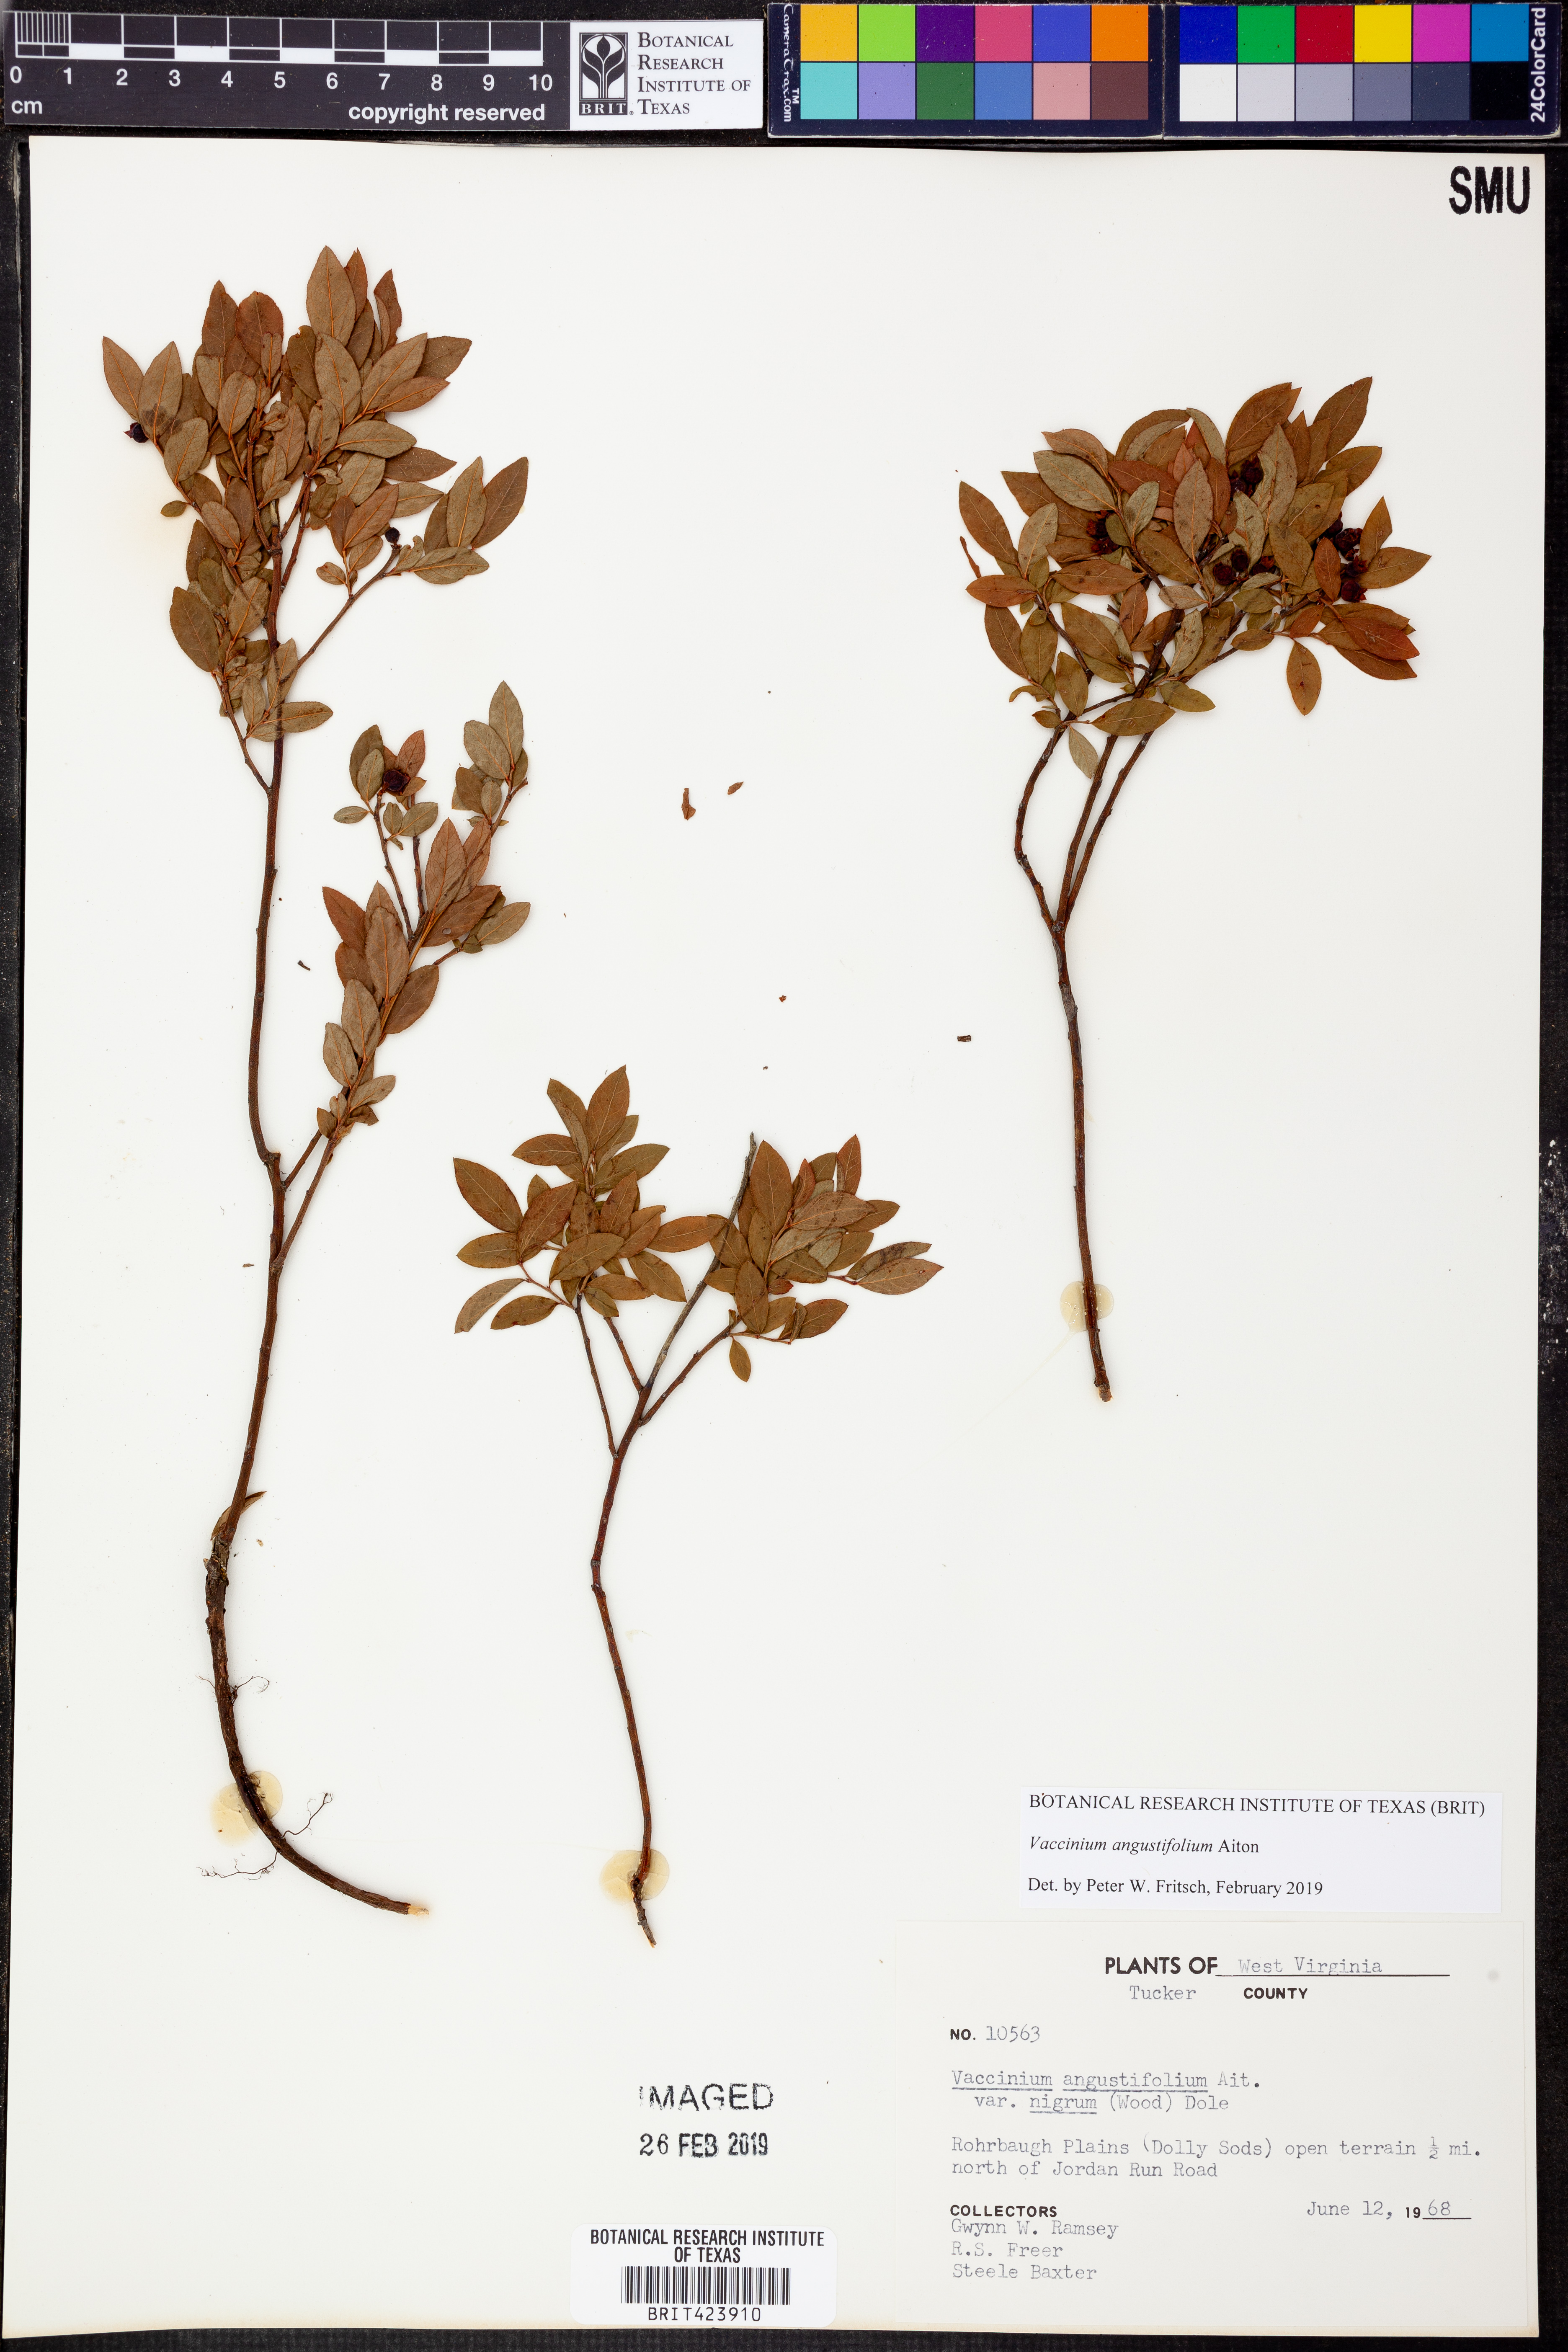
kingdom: Plantae
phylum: Tracheophyta
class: Magnoliopsida
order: Ericales
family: Ericaceae
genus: Vaccinium
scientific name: Vaccinium angustifolium
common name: Early lowbush blueberry
